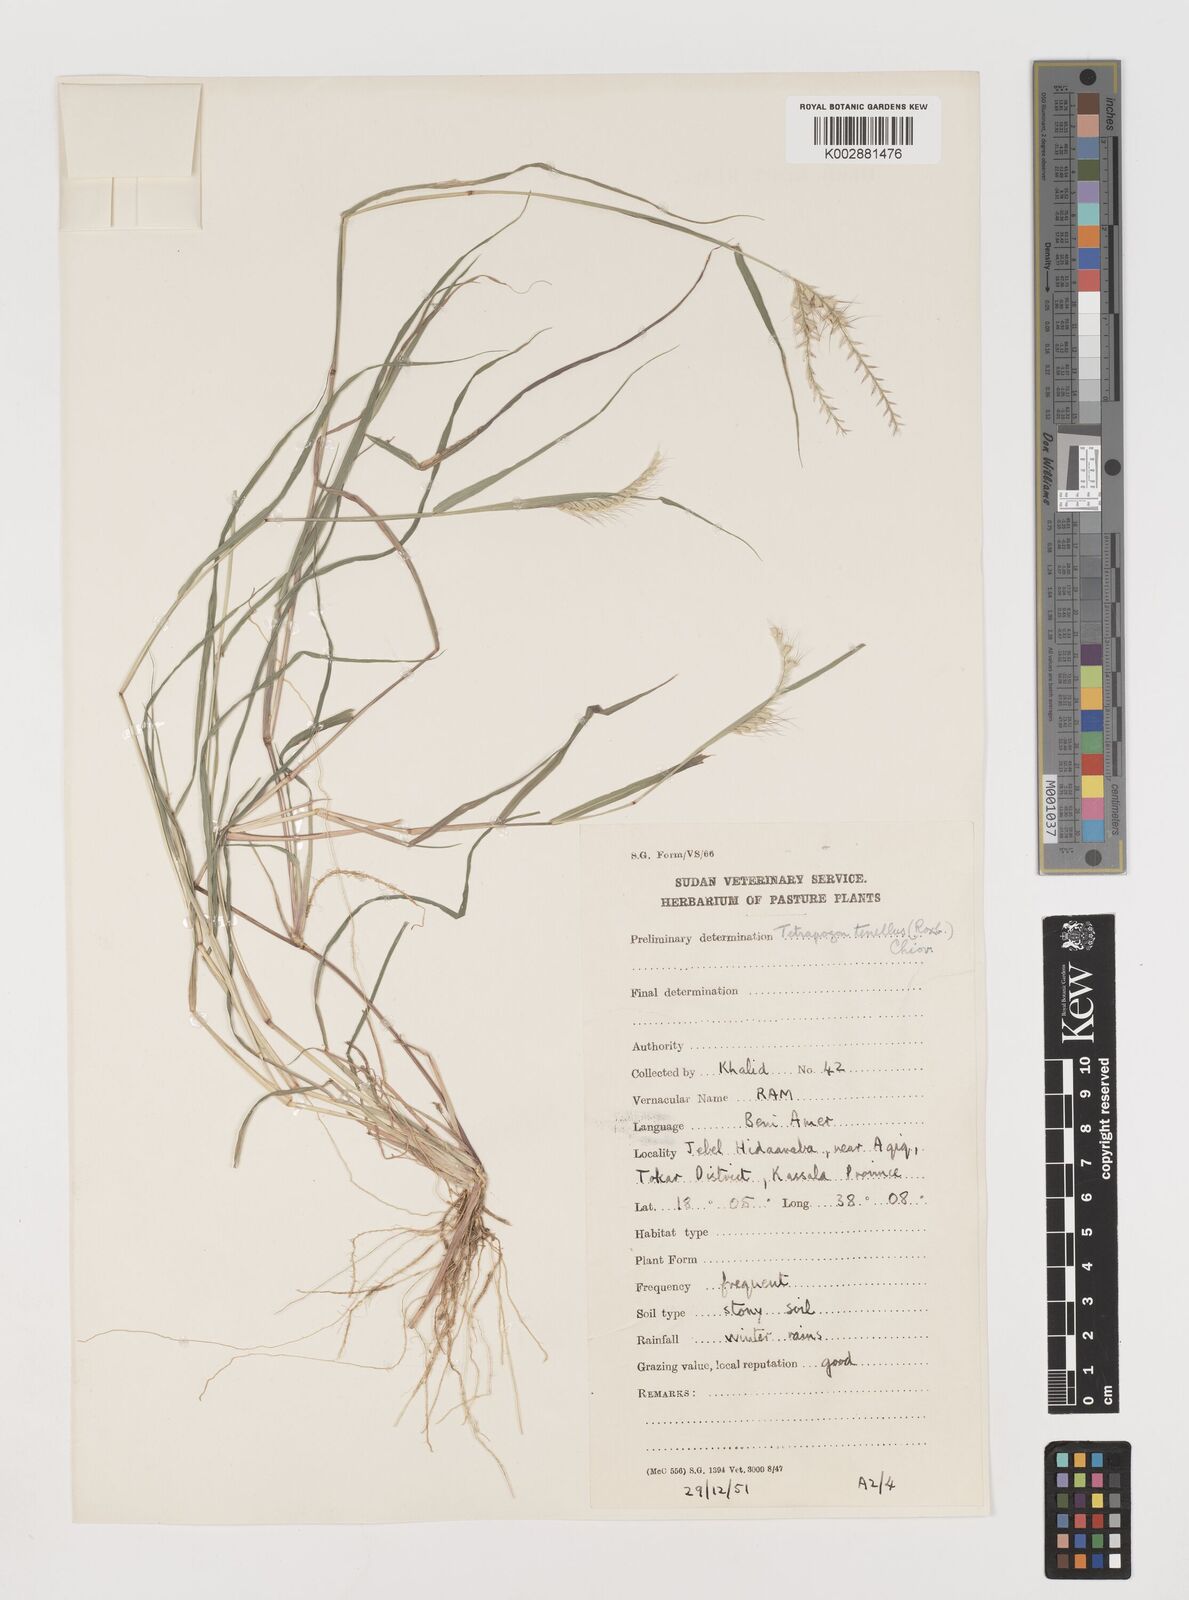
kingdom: Plantae
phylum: Tracheophyta
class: Liliopsida
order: Poales
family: Poaceae
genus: Tetrapogon
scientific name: Tetrapogon tenellus
